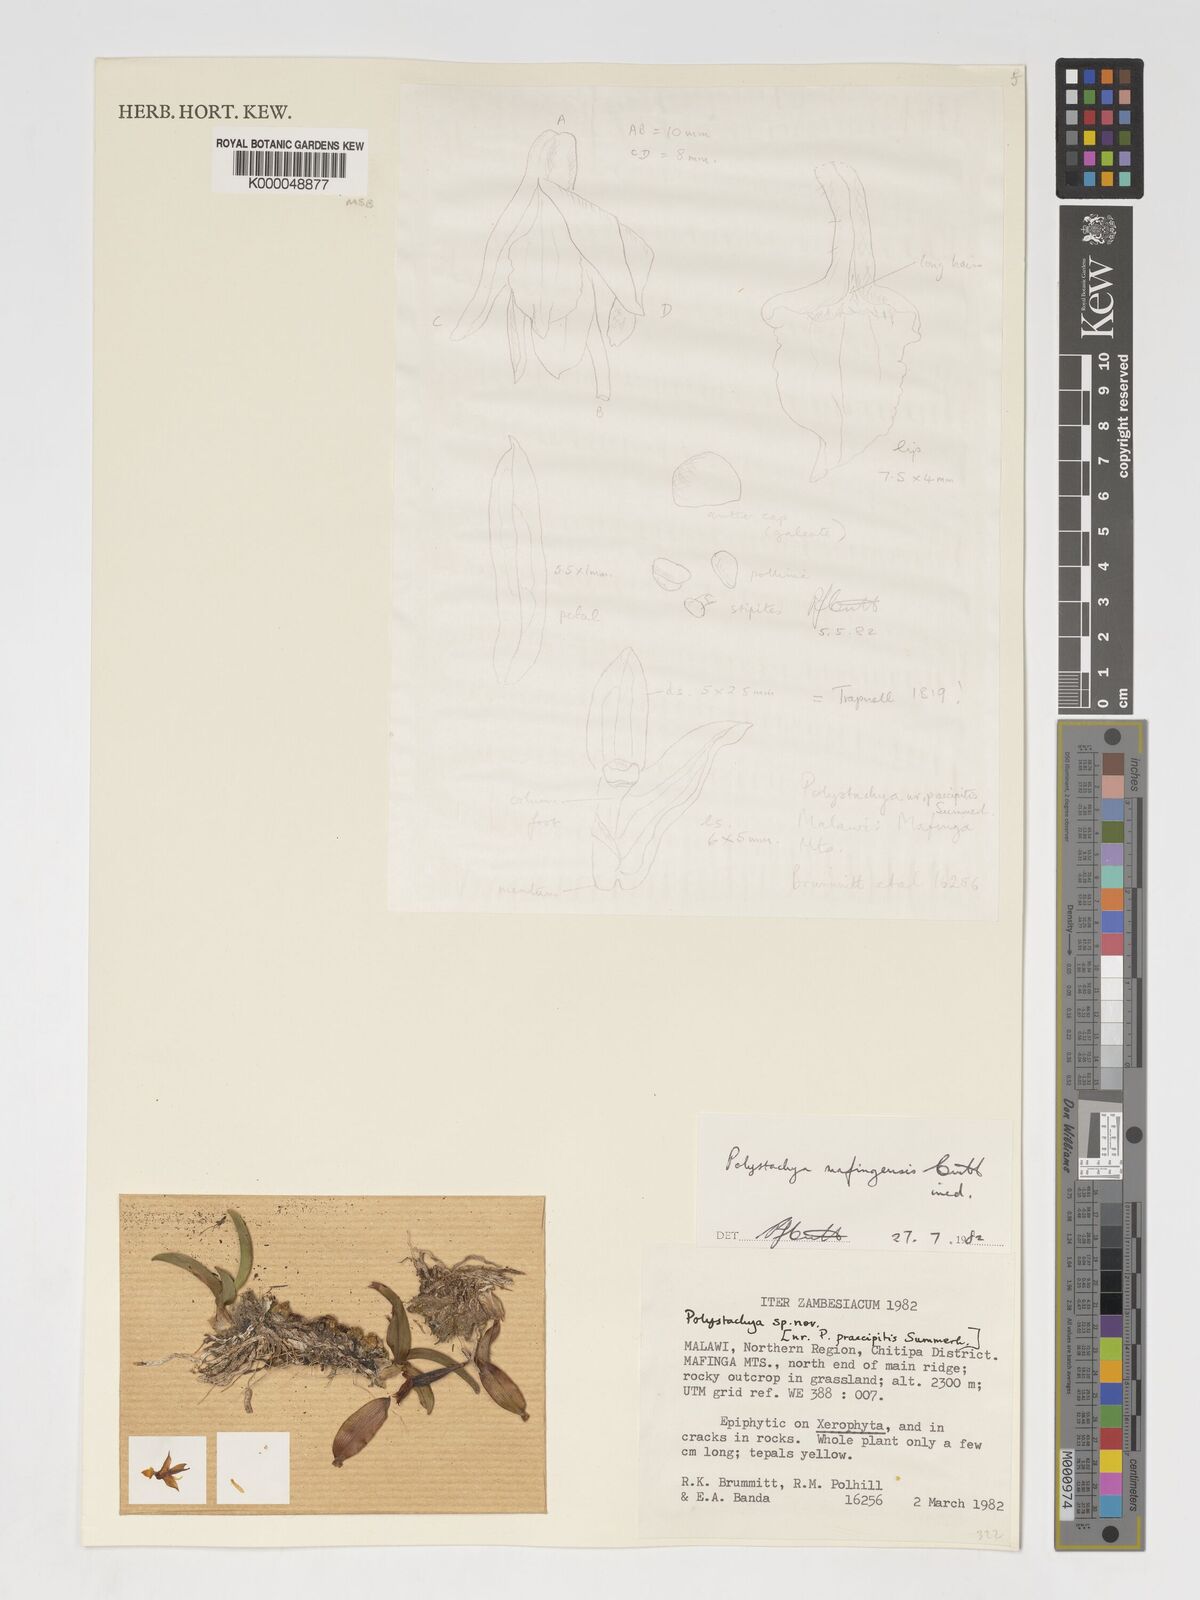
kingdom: Plantae
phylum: Tracheophyta
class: Liliopsida
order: Asparagales
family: Orchidaceae
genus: Polystachya
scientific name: Polystachya mafingensis
